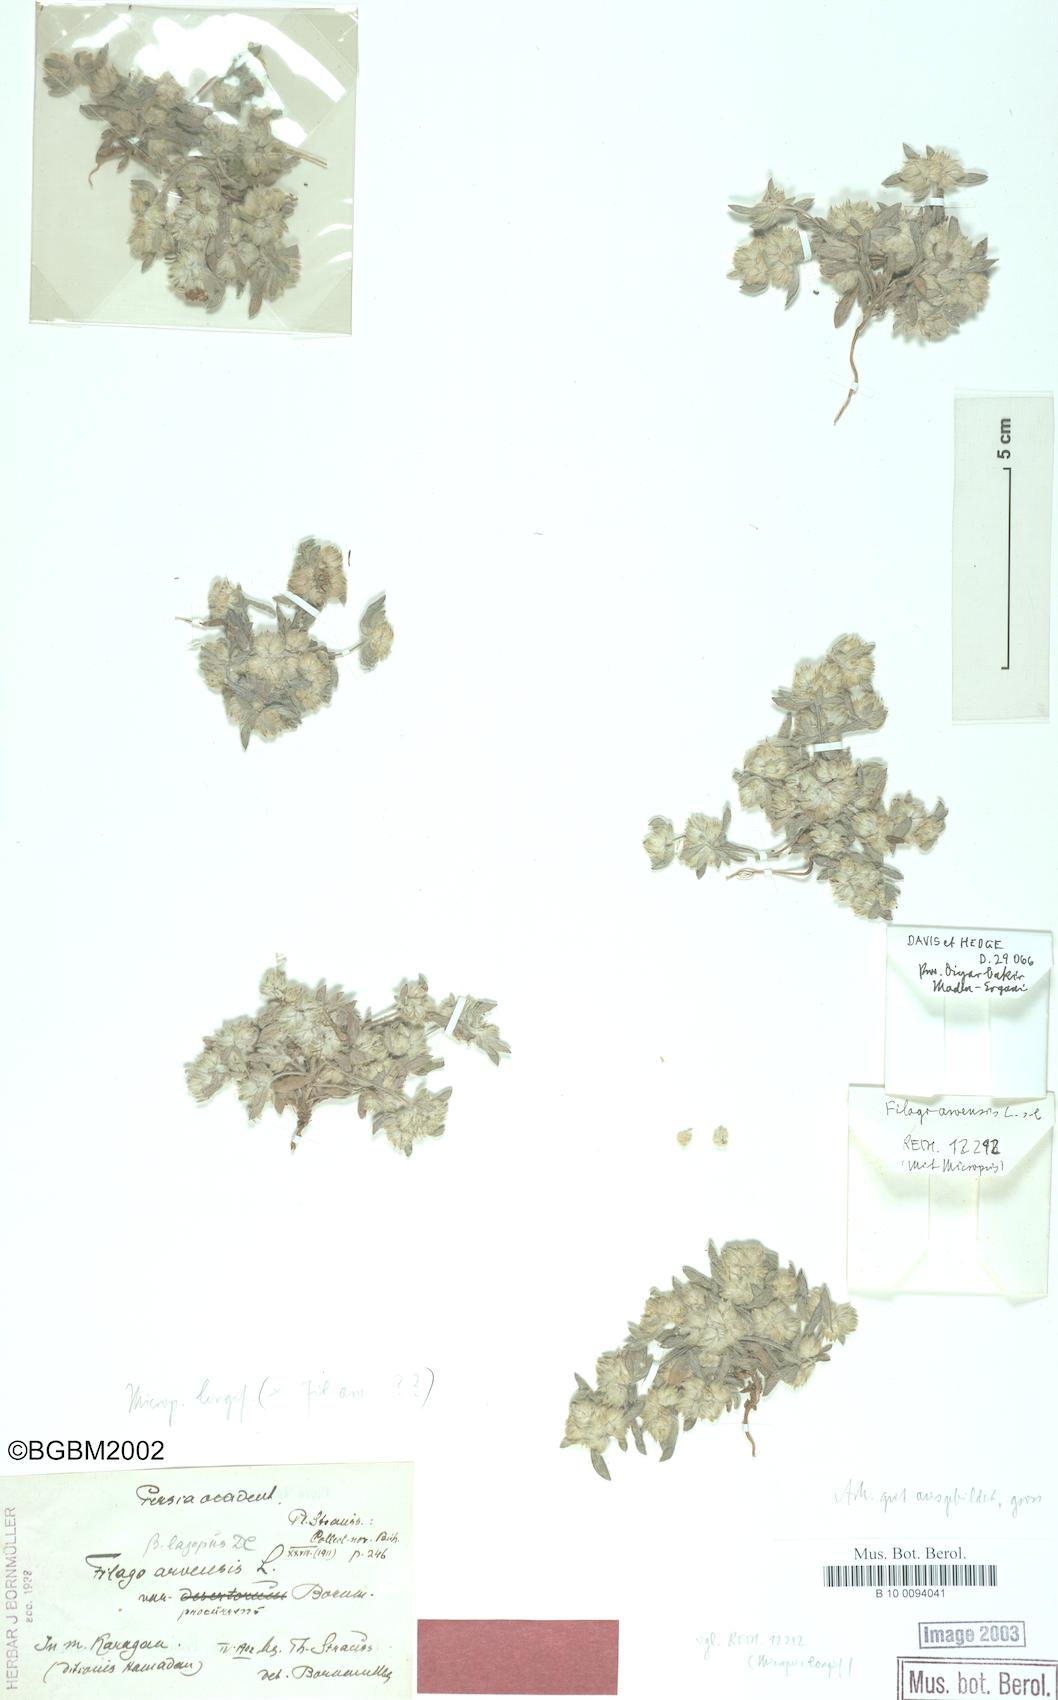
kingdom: Plantae
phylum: Tracheophyta
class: Magnoliopsida
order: Asterales
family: Asteraceae
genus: Filago
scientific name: Filago arvensis
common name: Field cudweed
